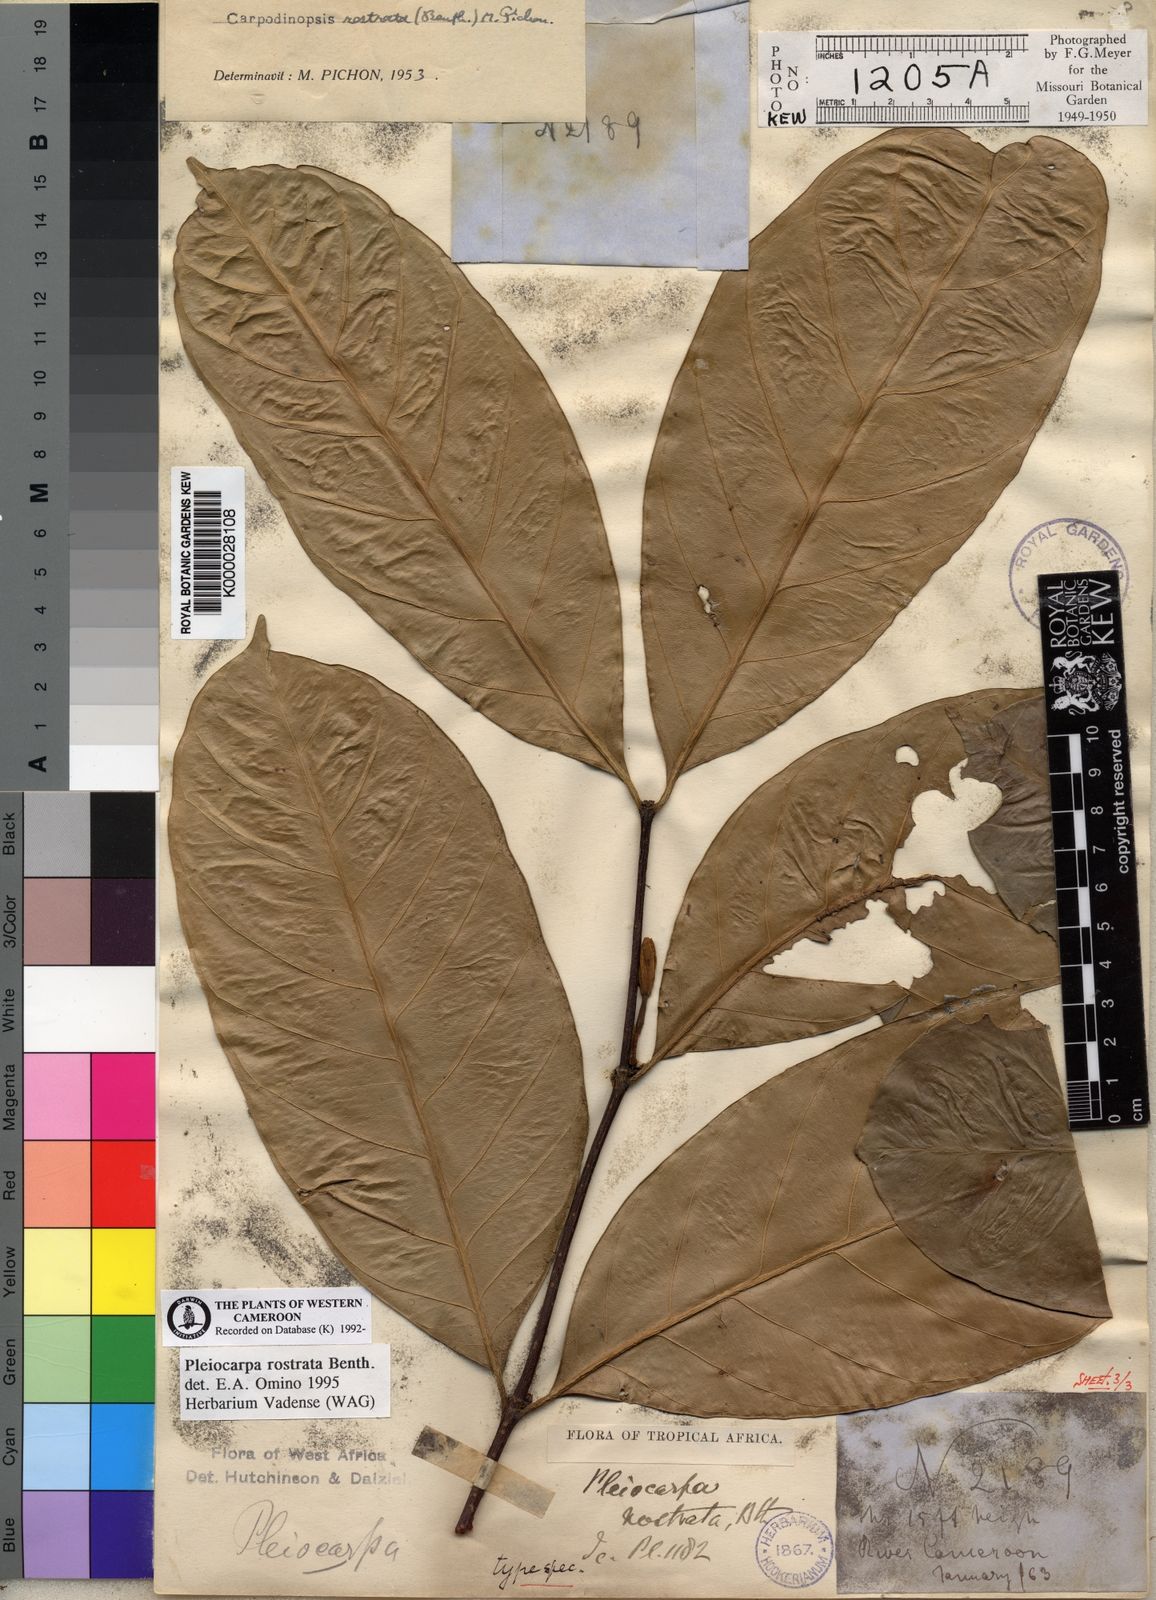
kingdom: Plantae
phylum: Tracheophyta
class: Magnoliopsida
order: Gentianales
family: Apocynaceae
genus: Pleiocarpa
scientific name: Pleiocarpa rostrata
